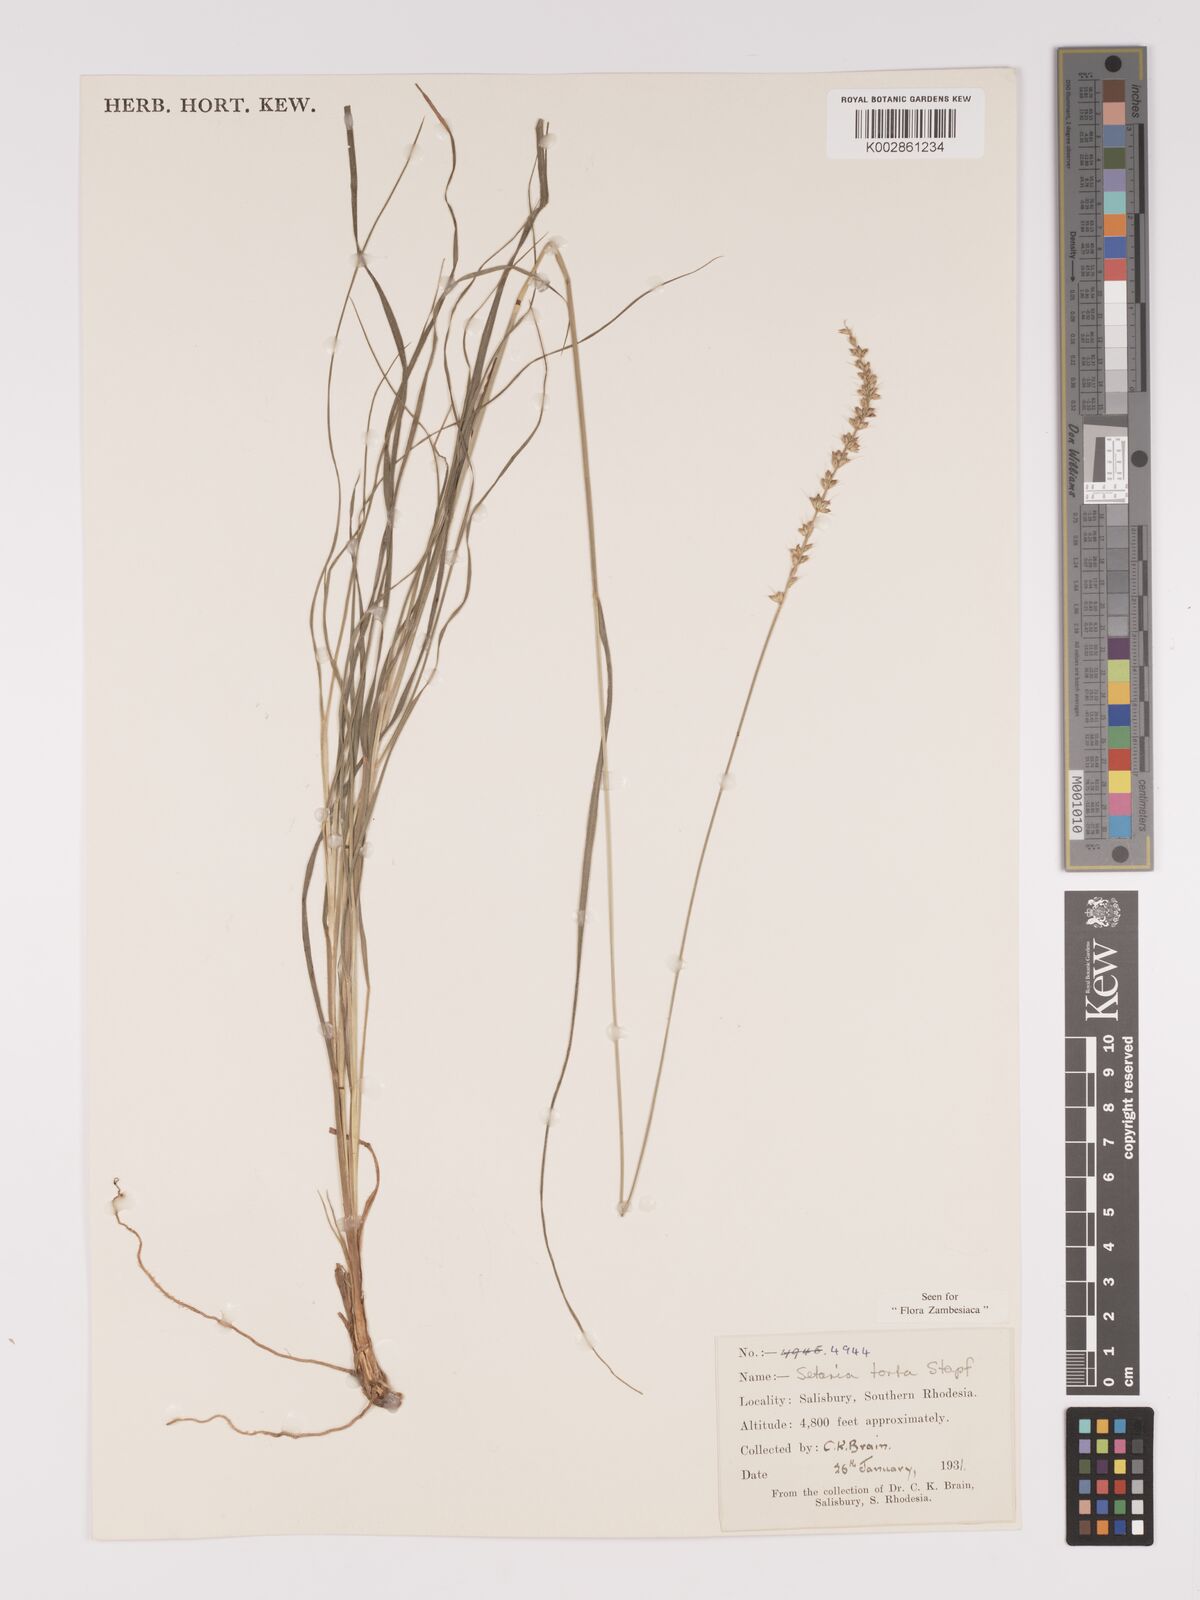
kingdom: Plantae
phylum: Tracheophyta
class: Liliopsida
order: Poales
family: Poaceae
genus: Setaria
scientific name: Setaria sphacelata
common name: African bristlegrass
